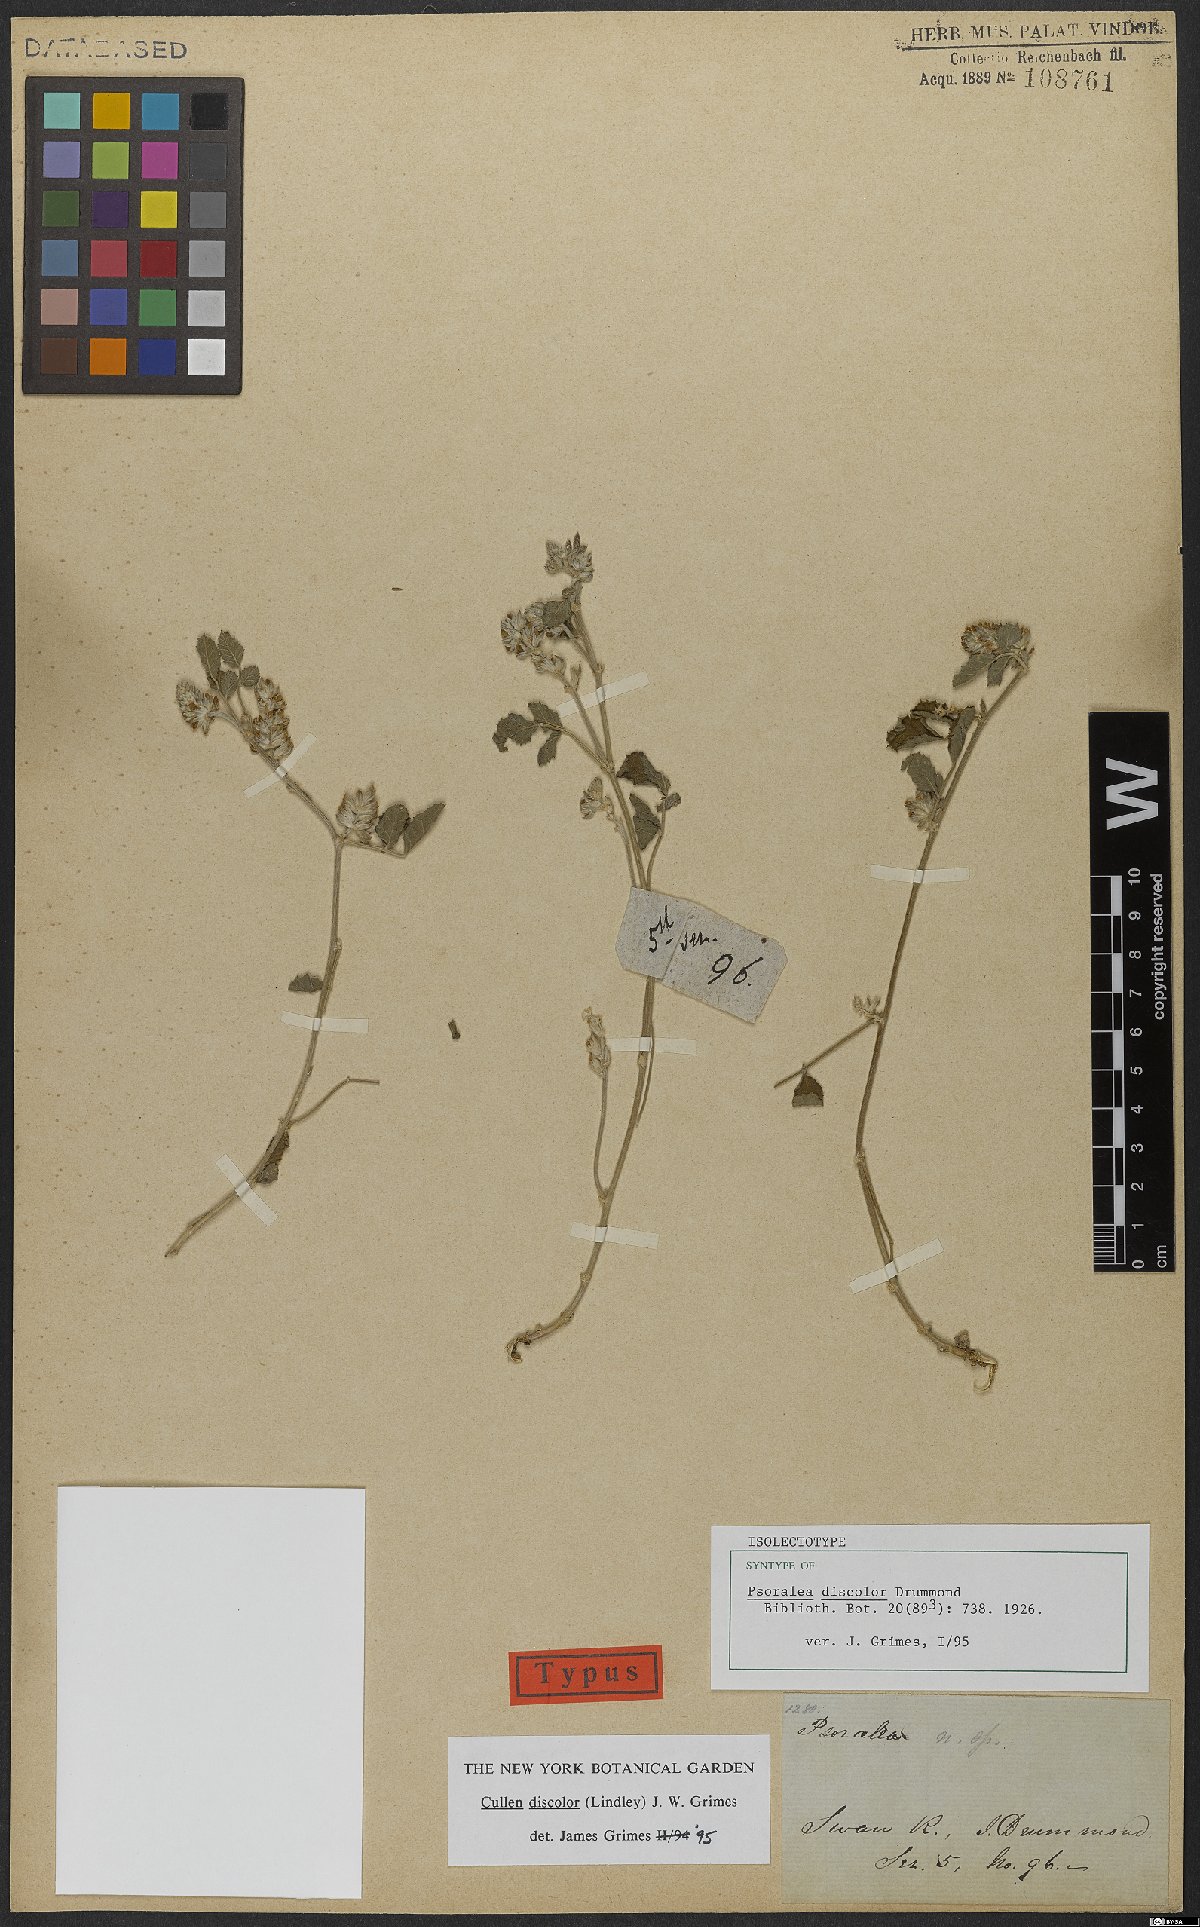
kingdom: Plantae
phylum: Tracheophyta
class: Magnoliopsida
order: Fabales
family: Fabaceae
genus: Cullen
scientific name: Cullen discolor
